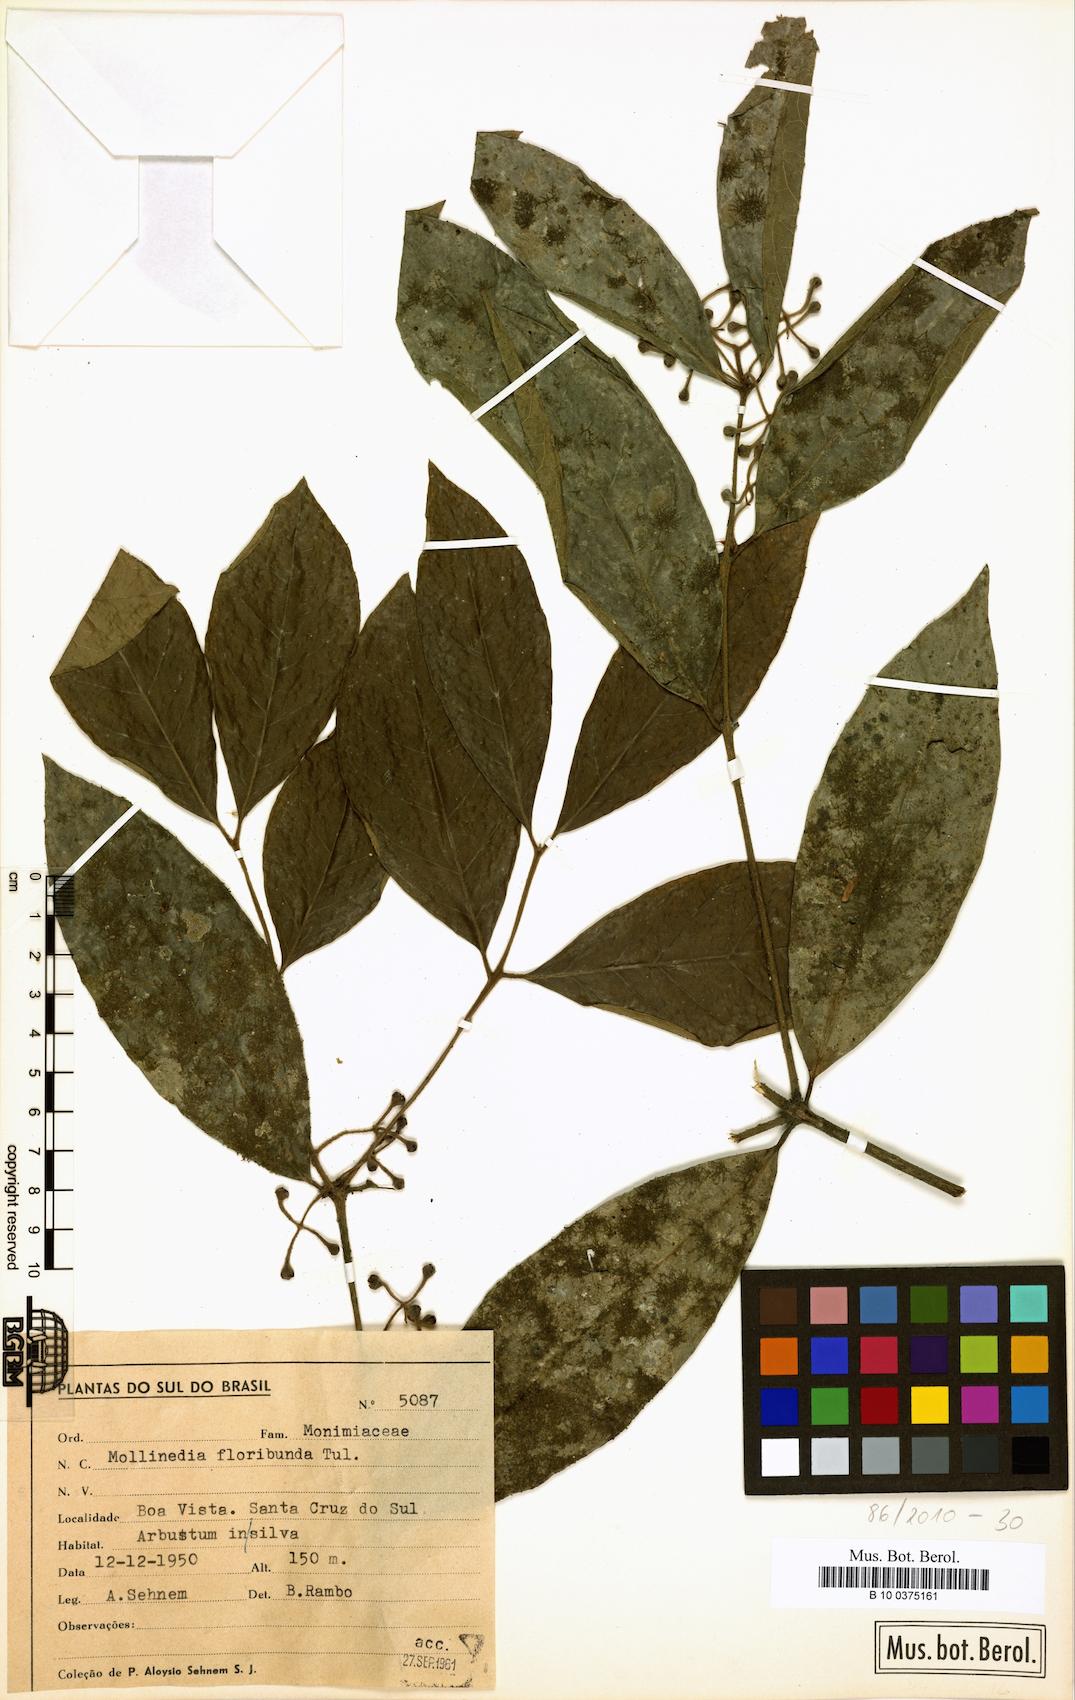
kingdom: Plantae
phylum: Tracheophyta
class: Magnoliopsida
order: Laurales
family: Monimiaceae
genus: Mollinedia
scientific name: Mollinedia umbellata
